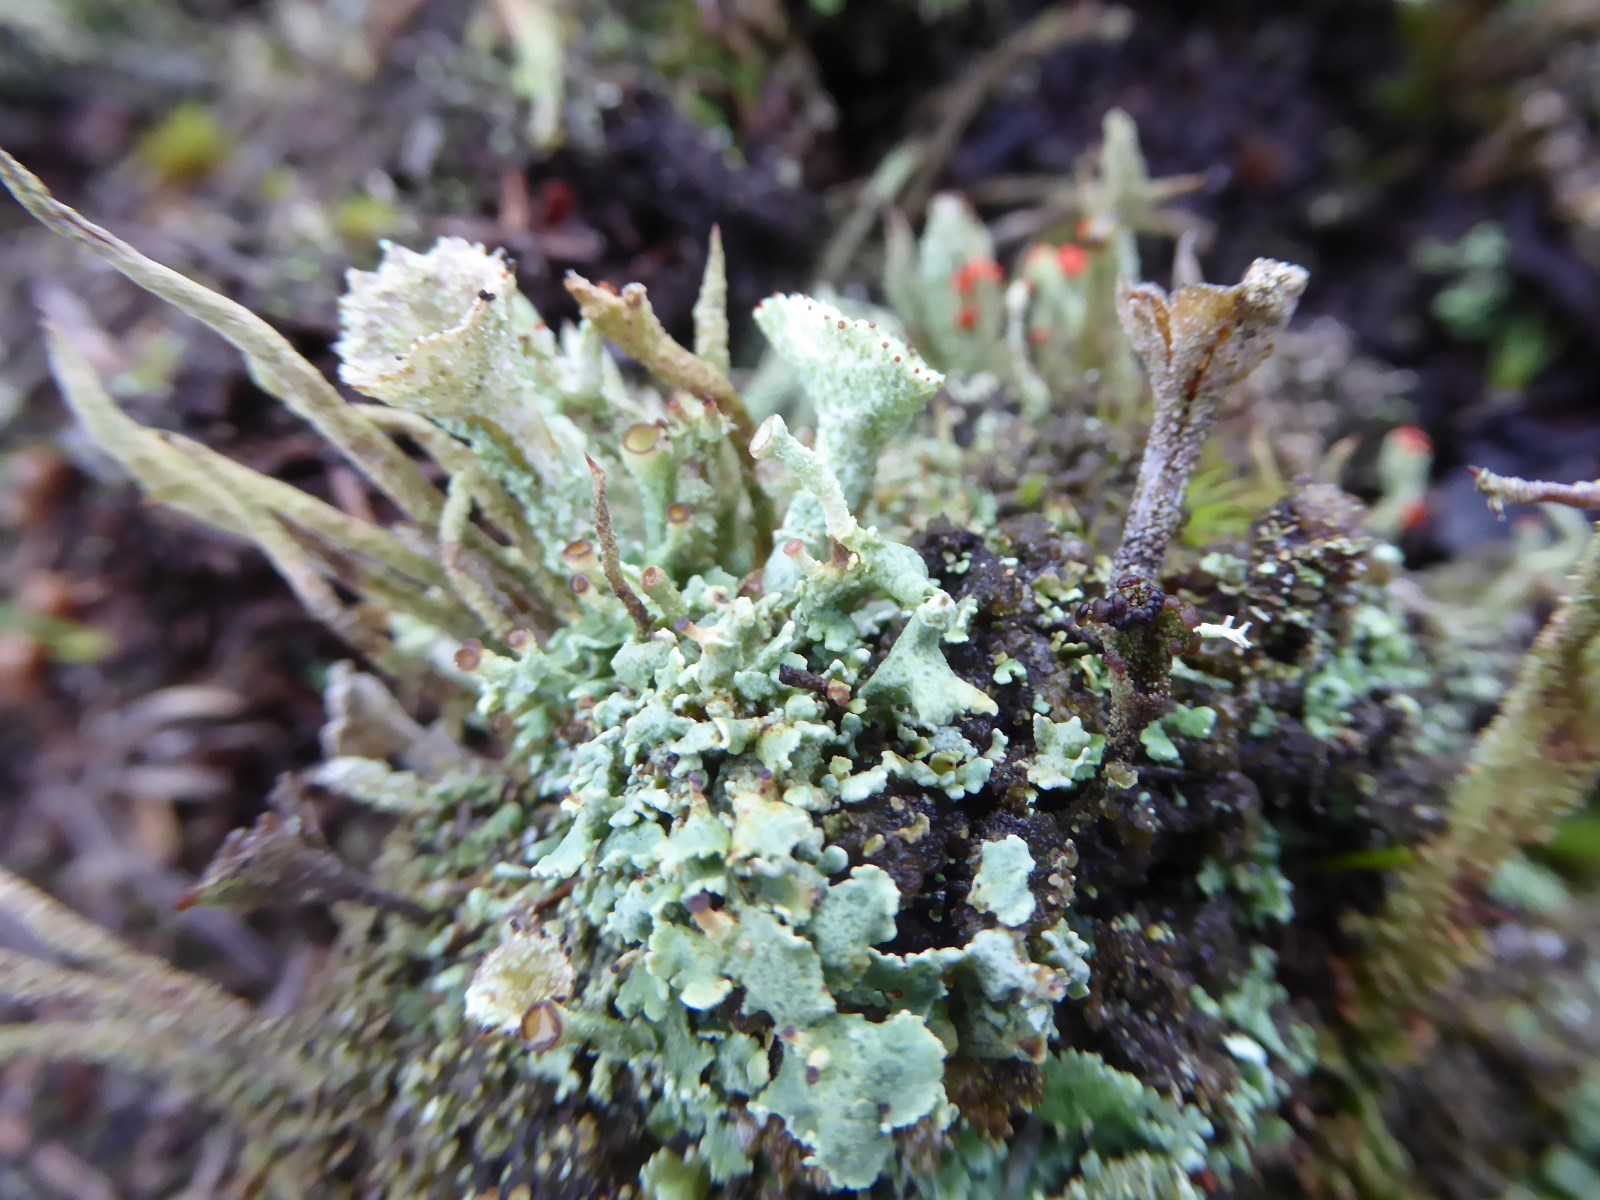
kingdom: Fungi
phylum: Ascomycota
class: Lecanoromycetes
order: Lecanorales
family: Cladoniaceae
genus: Cladonia
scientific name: Cladonia
